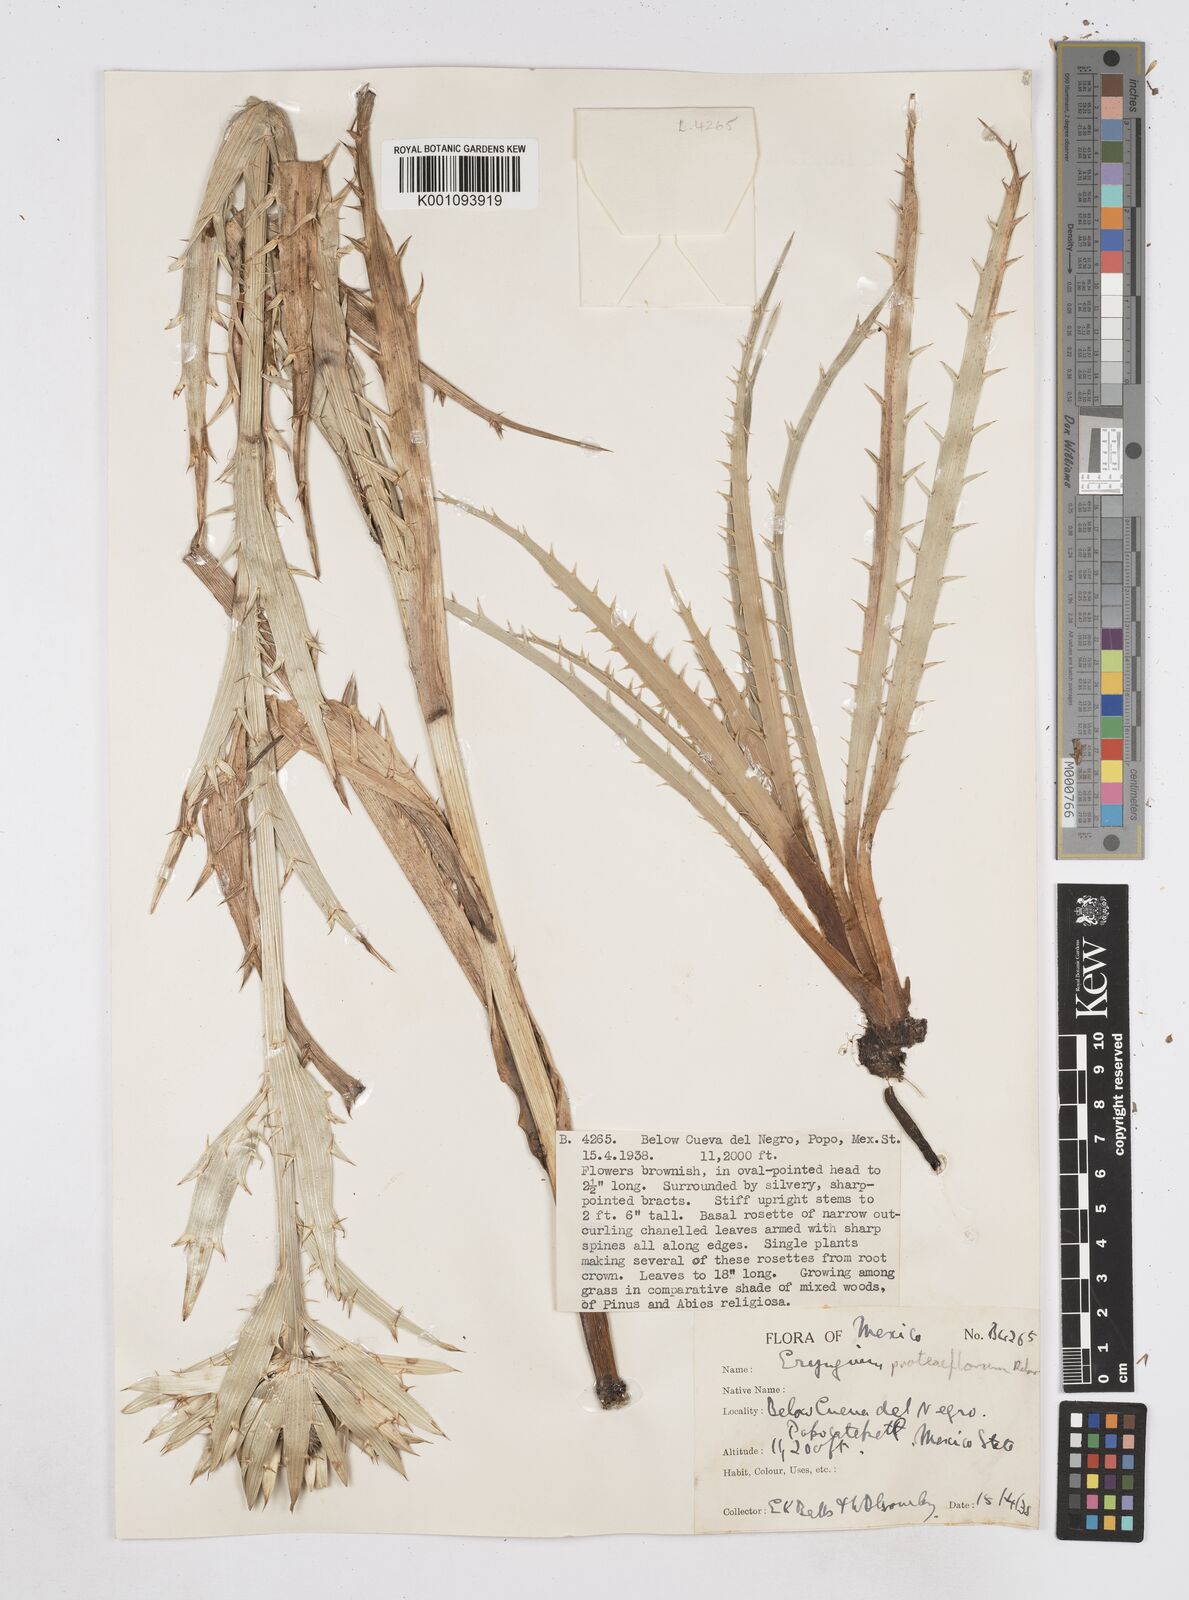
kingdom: Plantae
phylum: Tracheophyta
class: Magnoliopsida
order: Apiales
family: Apiaceae
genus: Eryngium
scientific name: Eryngium proteiflorum
